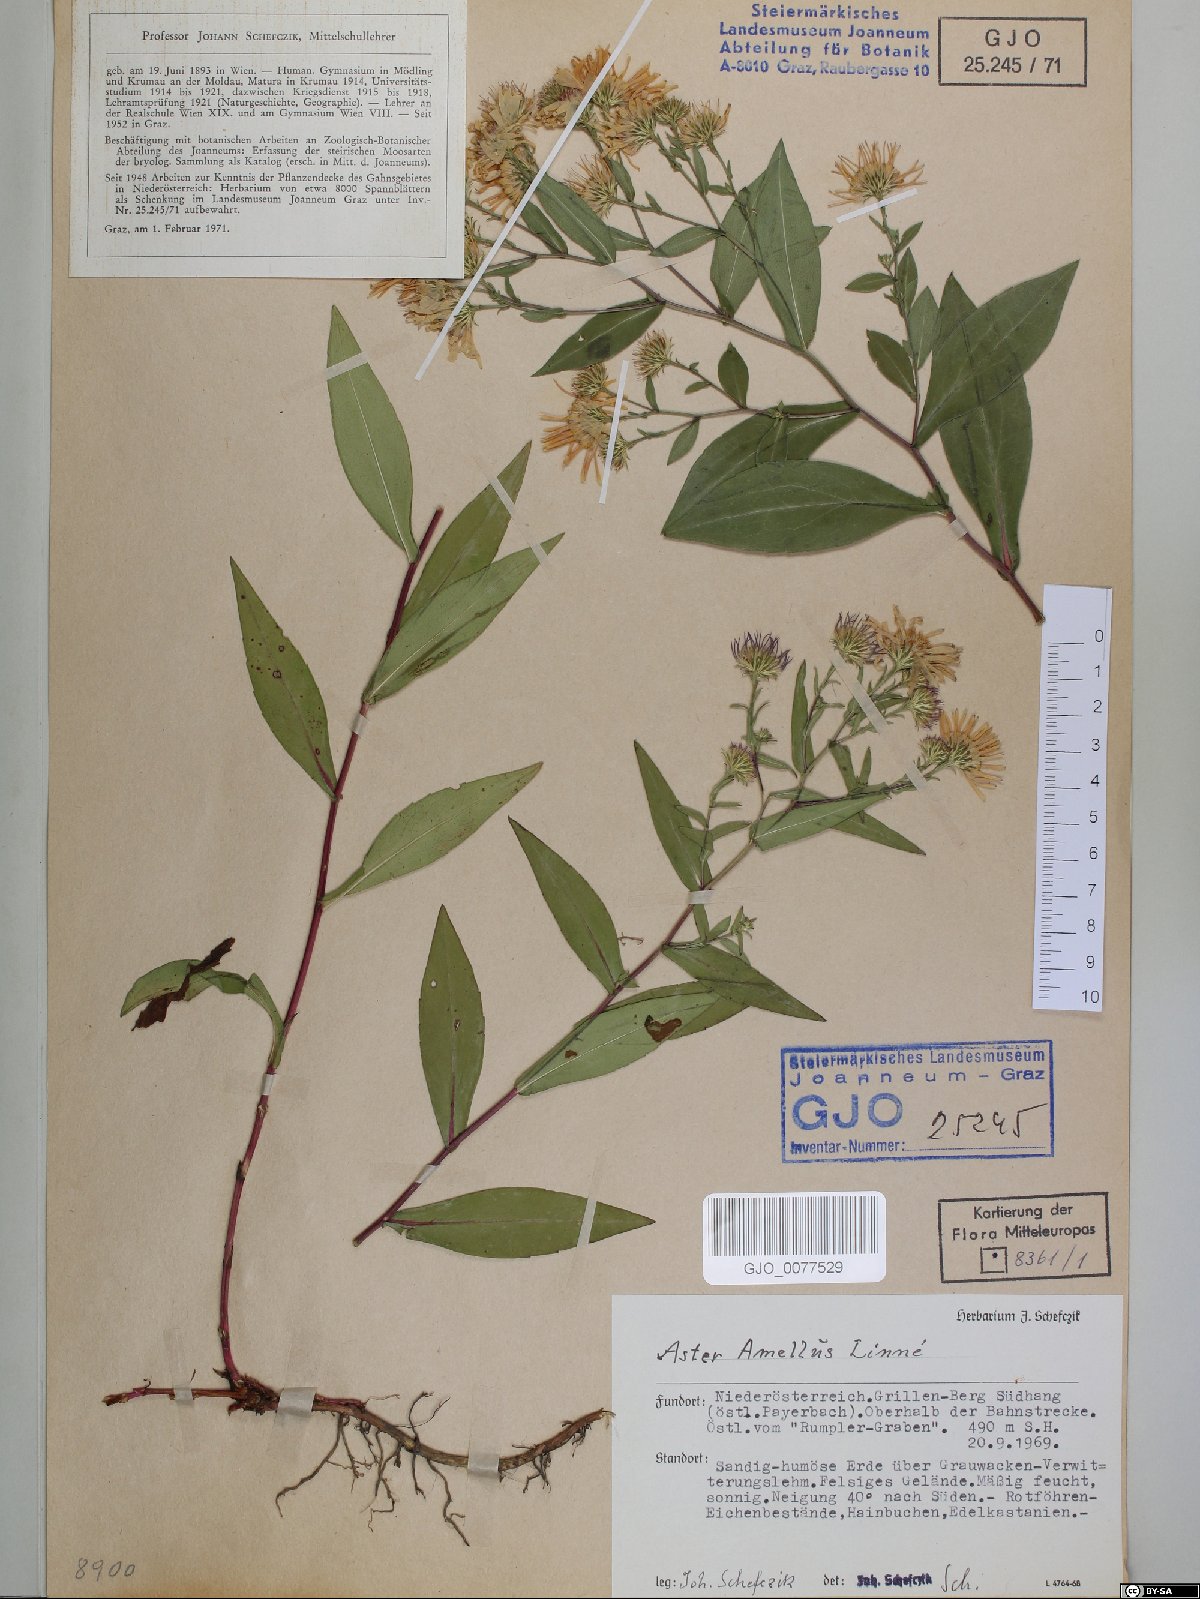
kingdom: Plantae
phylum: Tracheophyta
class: Magnoliopsida
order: Asterales
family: Asteraceae
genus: Aster
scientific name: Aster amellus
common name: European michaelmas daisy
